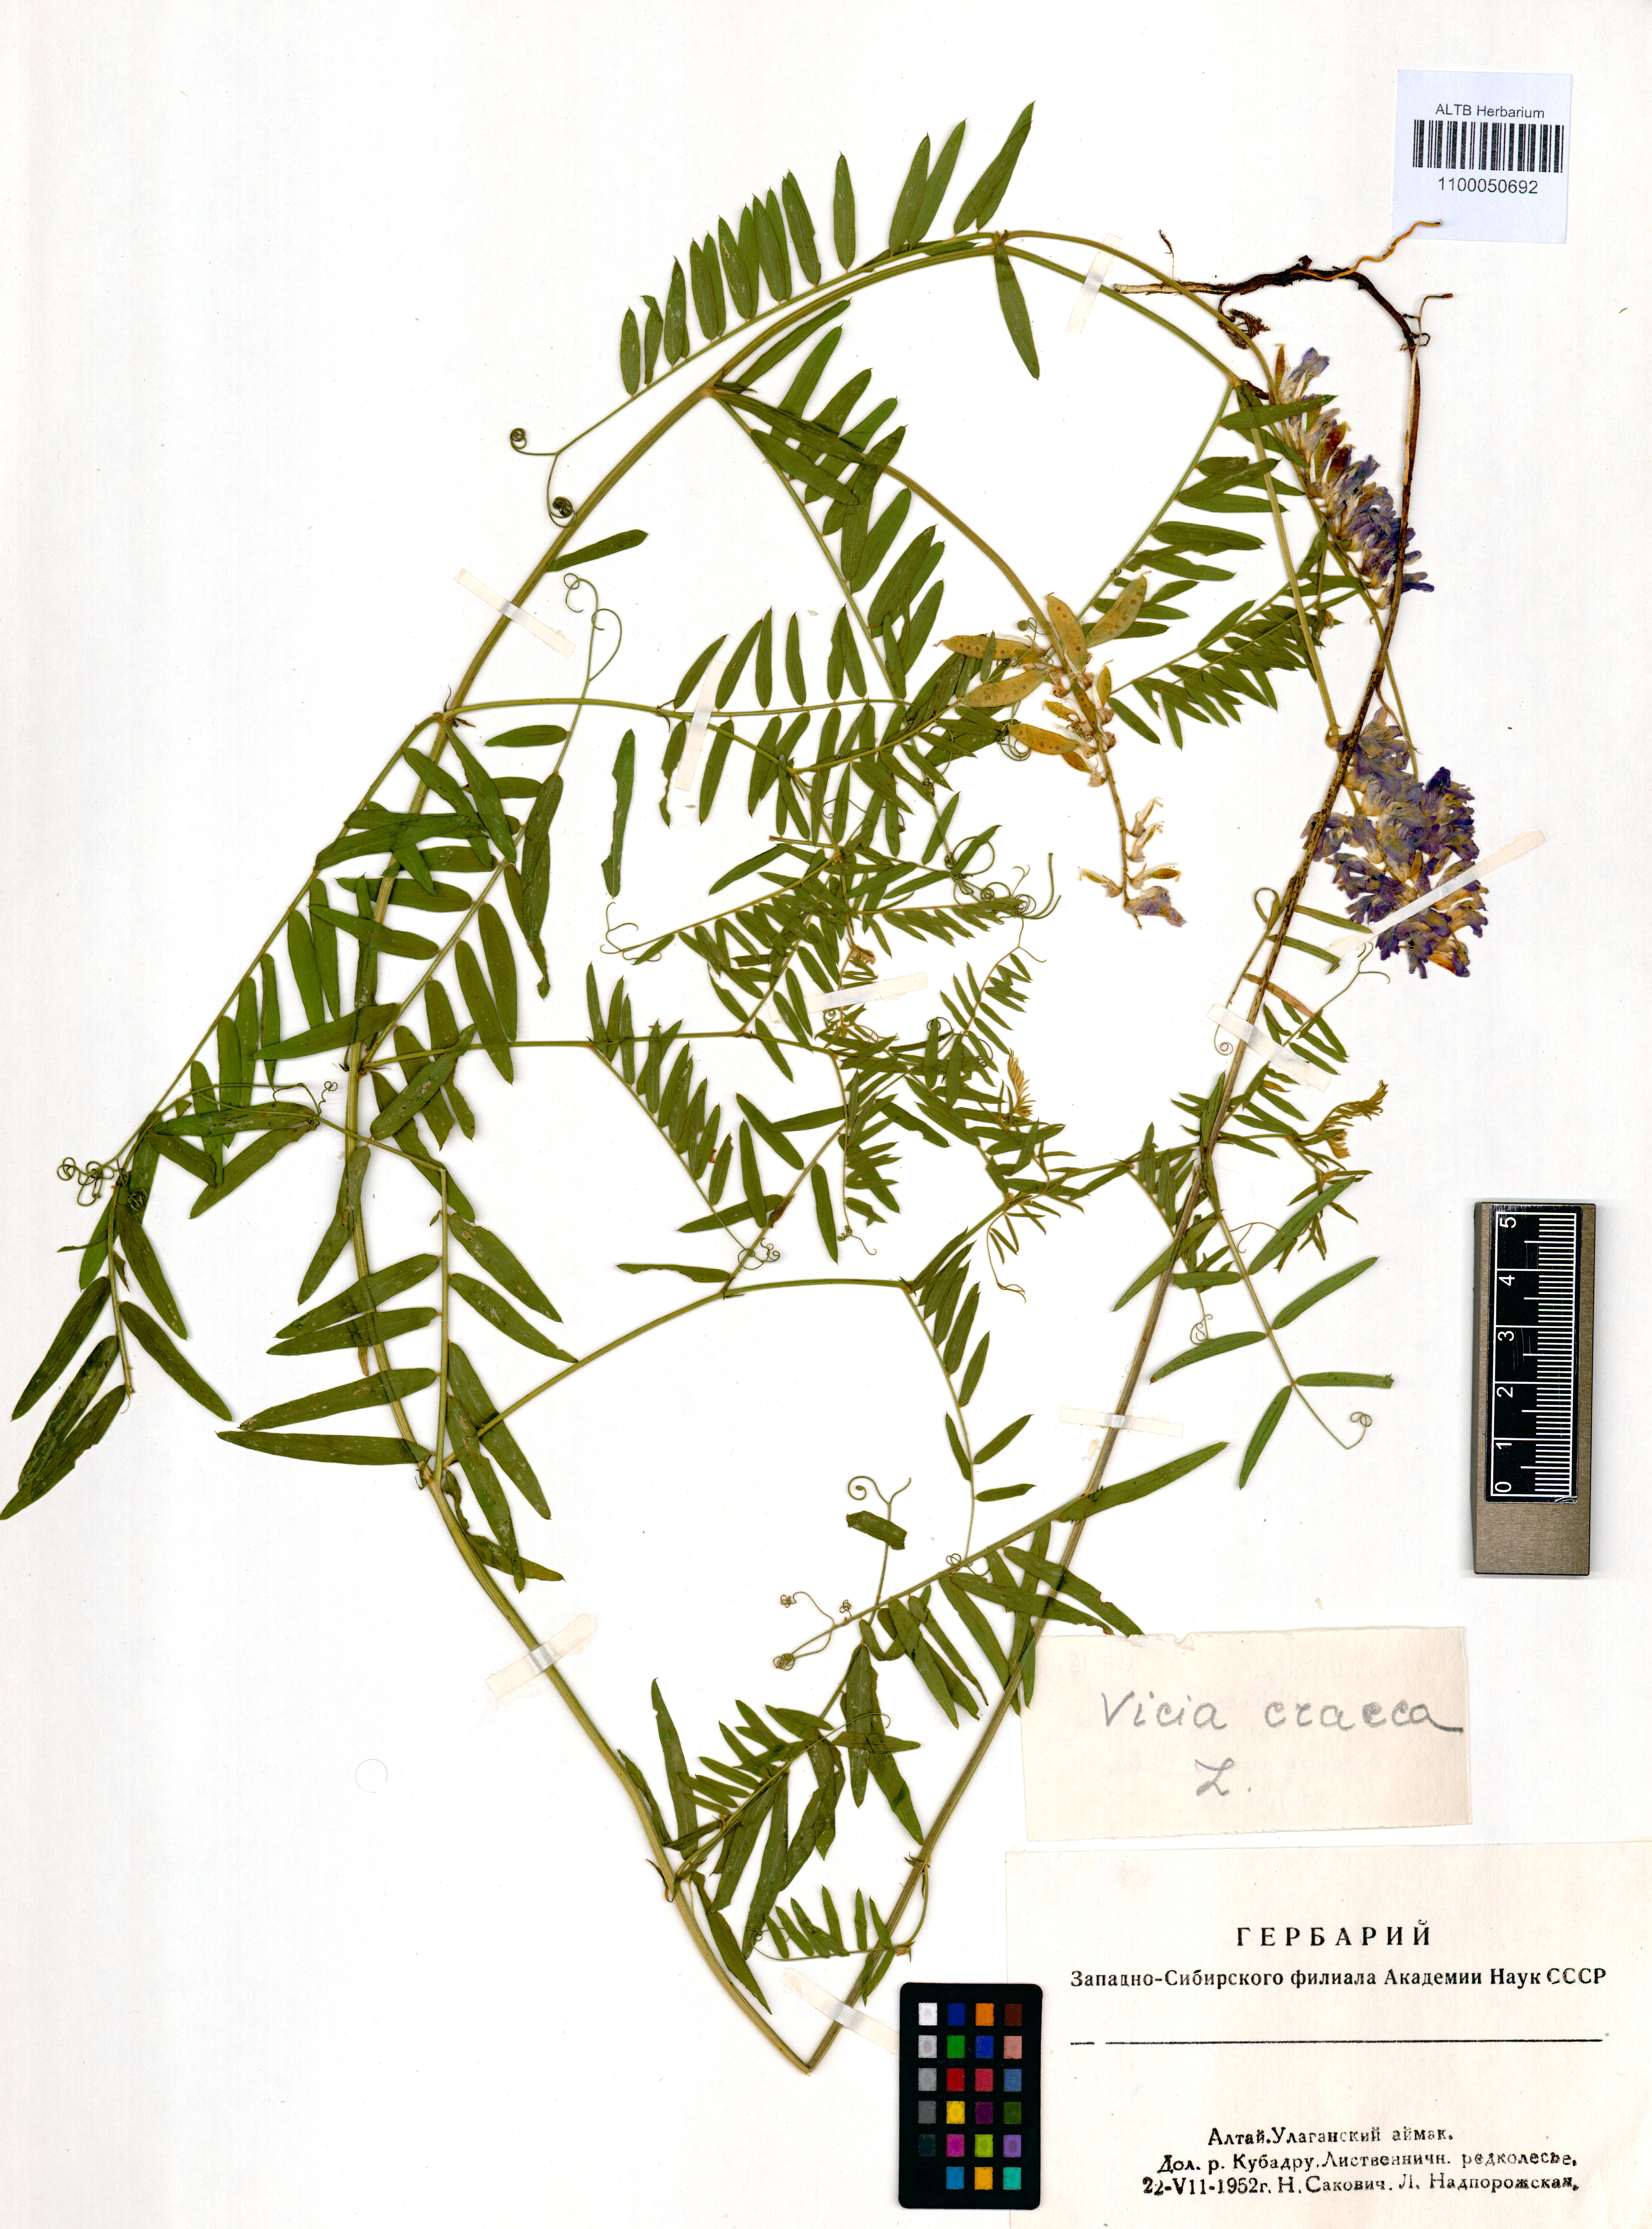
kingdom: Plantae
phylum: Tracheophyta
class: Magnoliopsida
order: Fabales
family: Fabaceae
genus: Vicia
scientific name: Vicia cracca
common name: Bird vetch
